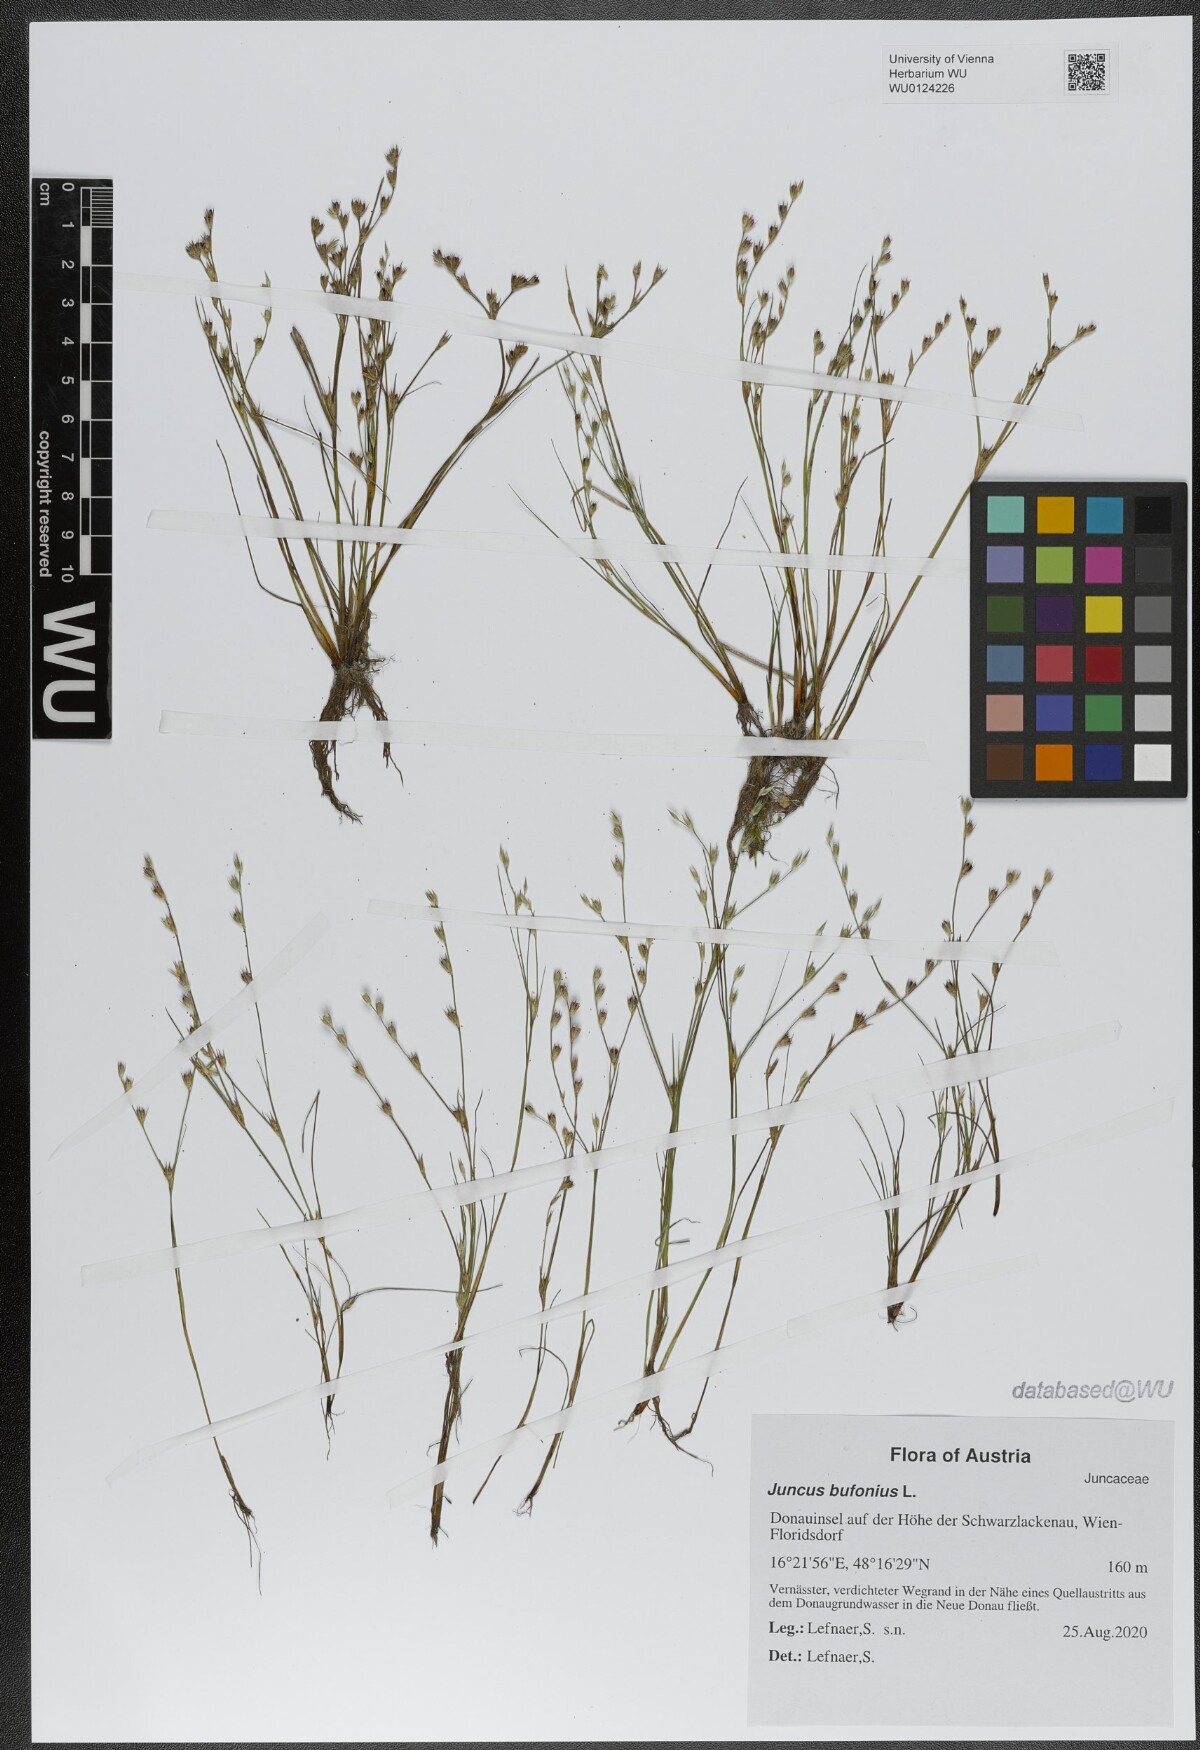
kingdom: Plantae
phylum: Tracheophyta
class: Liliopsida
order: Poales
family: Juncaceae
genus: Juncus
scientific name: Juncus bufonius
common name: Toad rush
